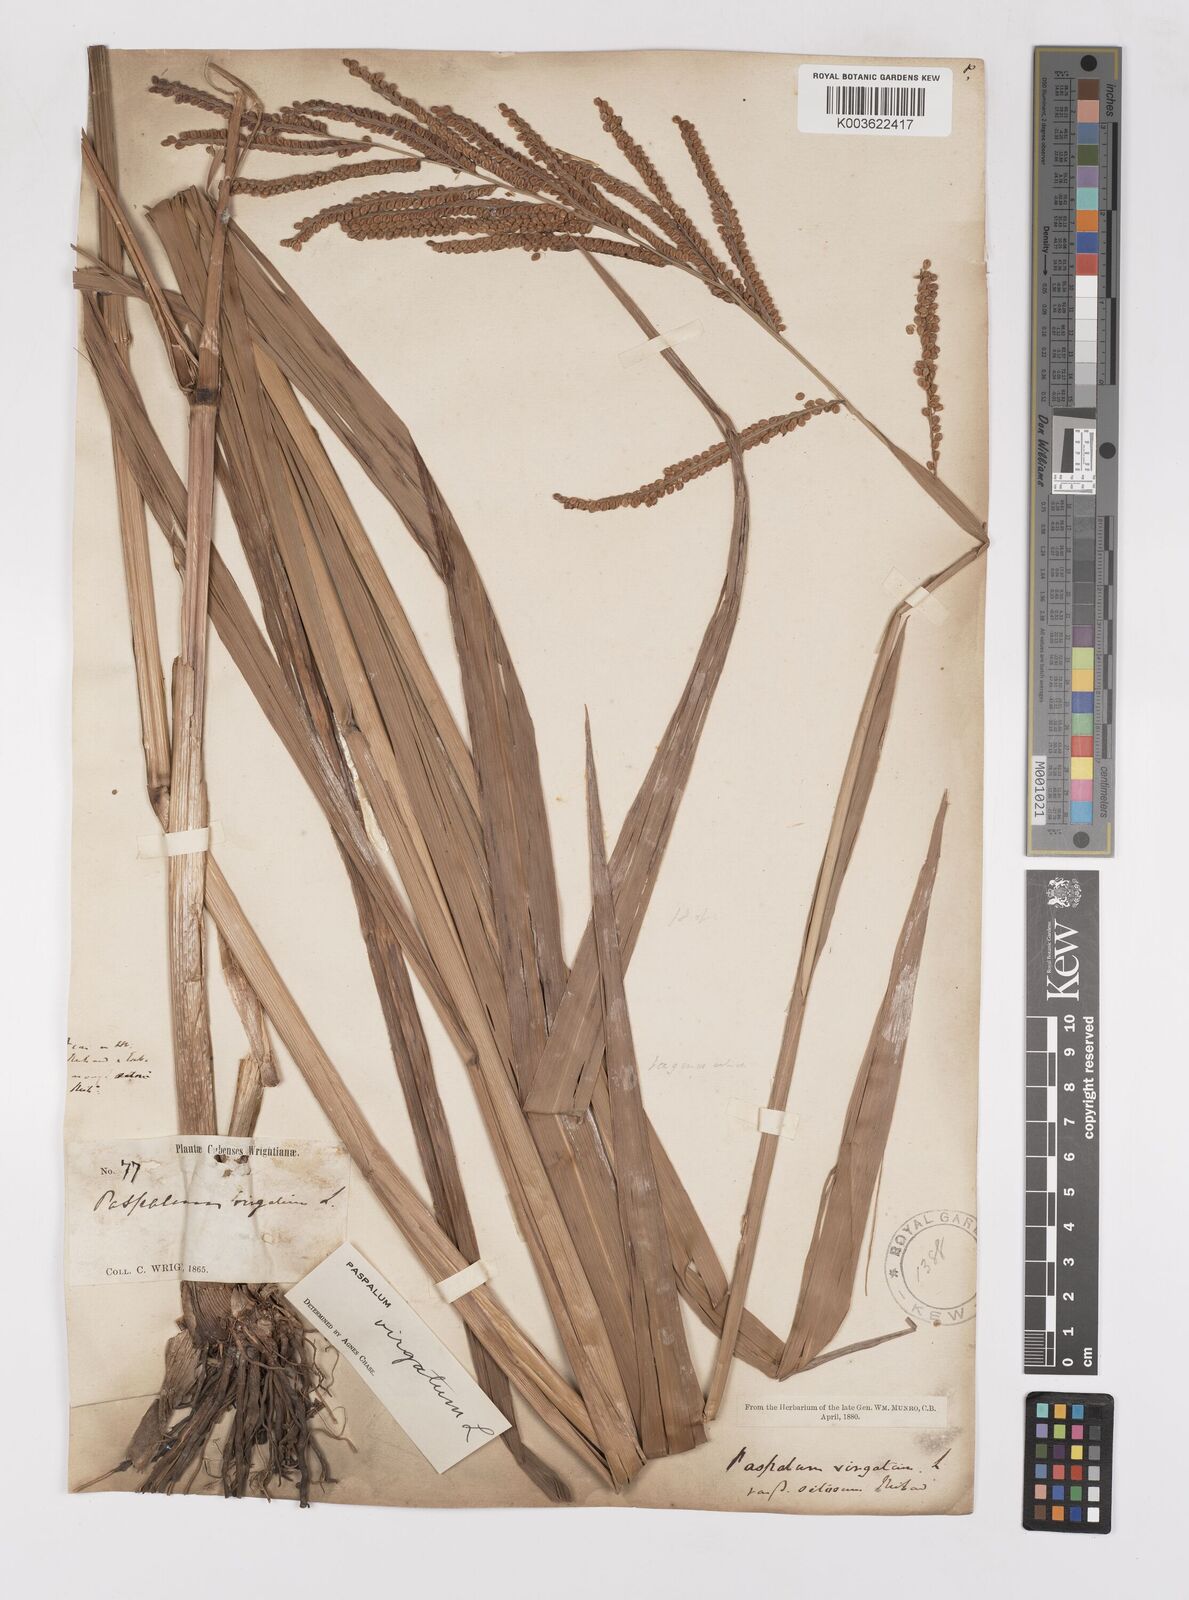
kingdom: Plantae
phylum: Tracheophyta
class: Liliopsida
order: Poales
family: Poaceae
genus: Paspalum
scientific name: Paspalum virgatum
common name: Talquezal
